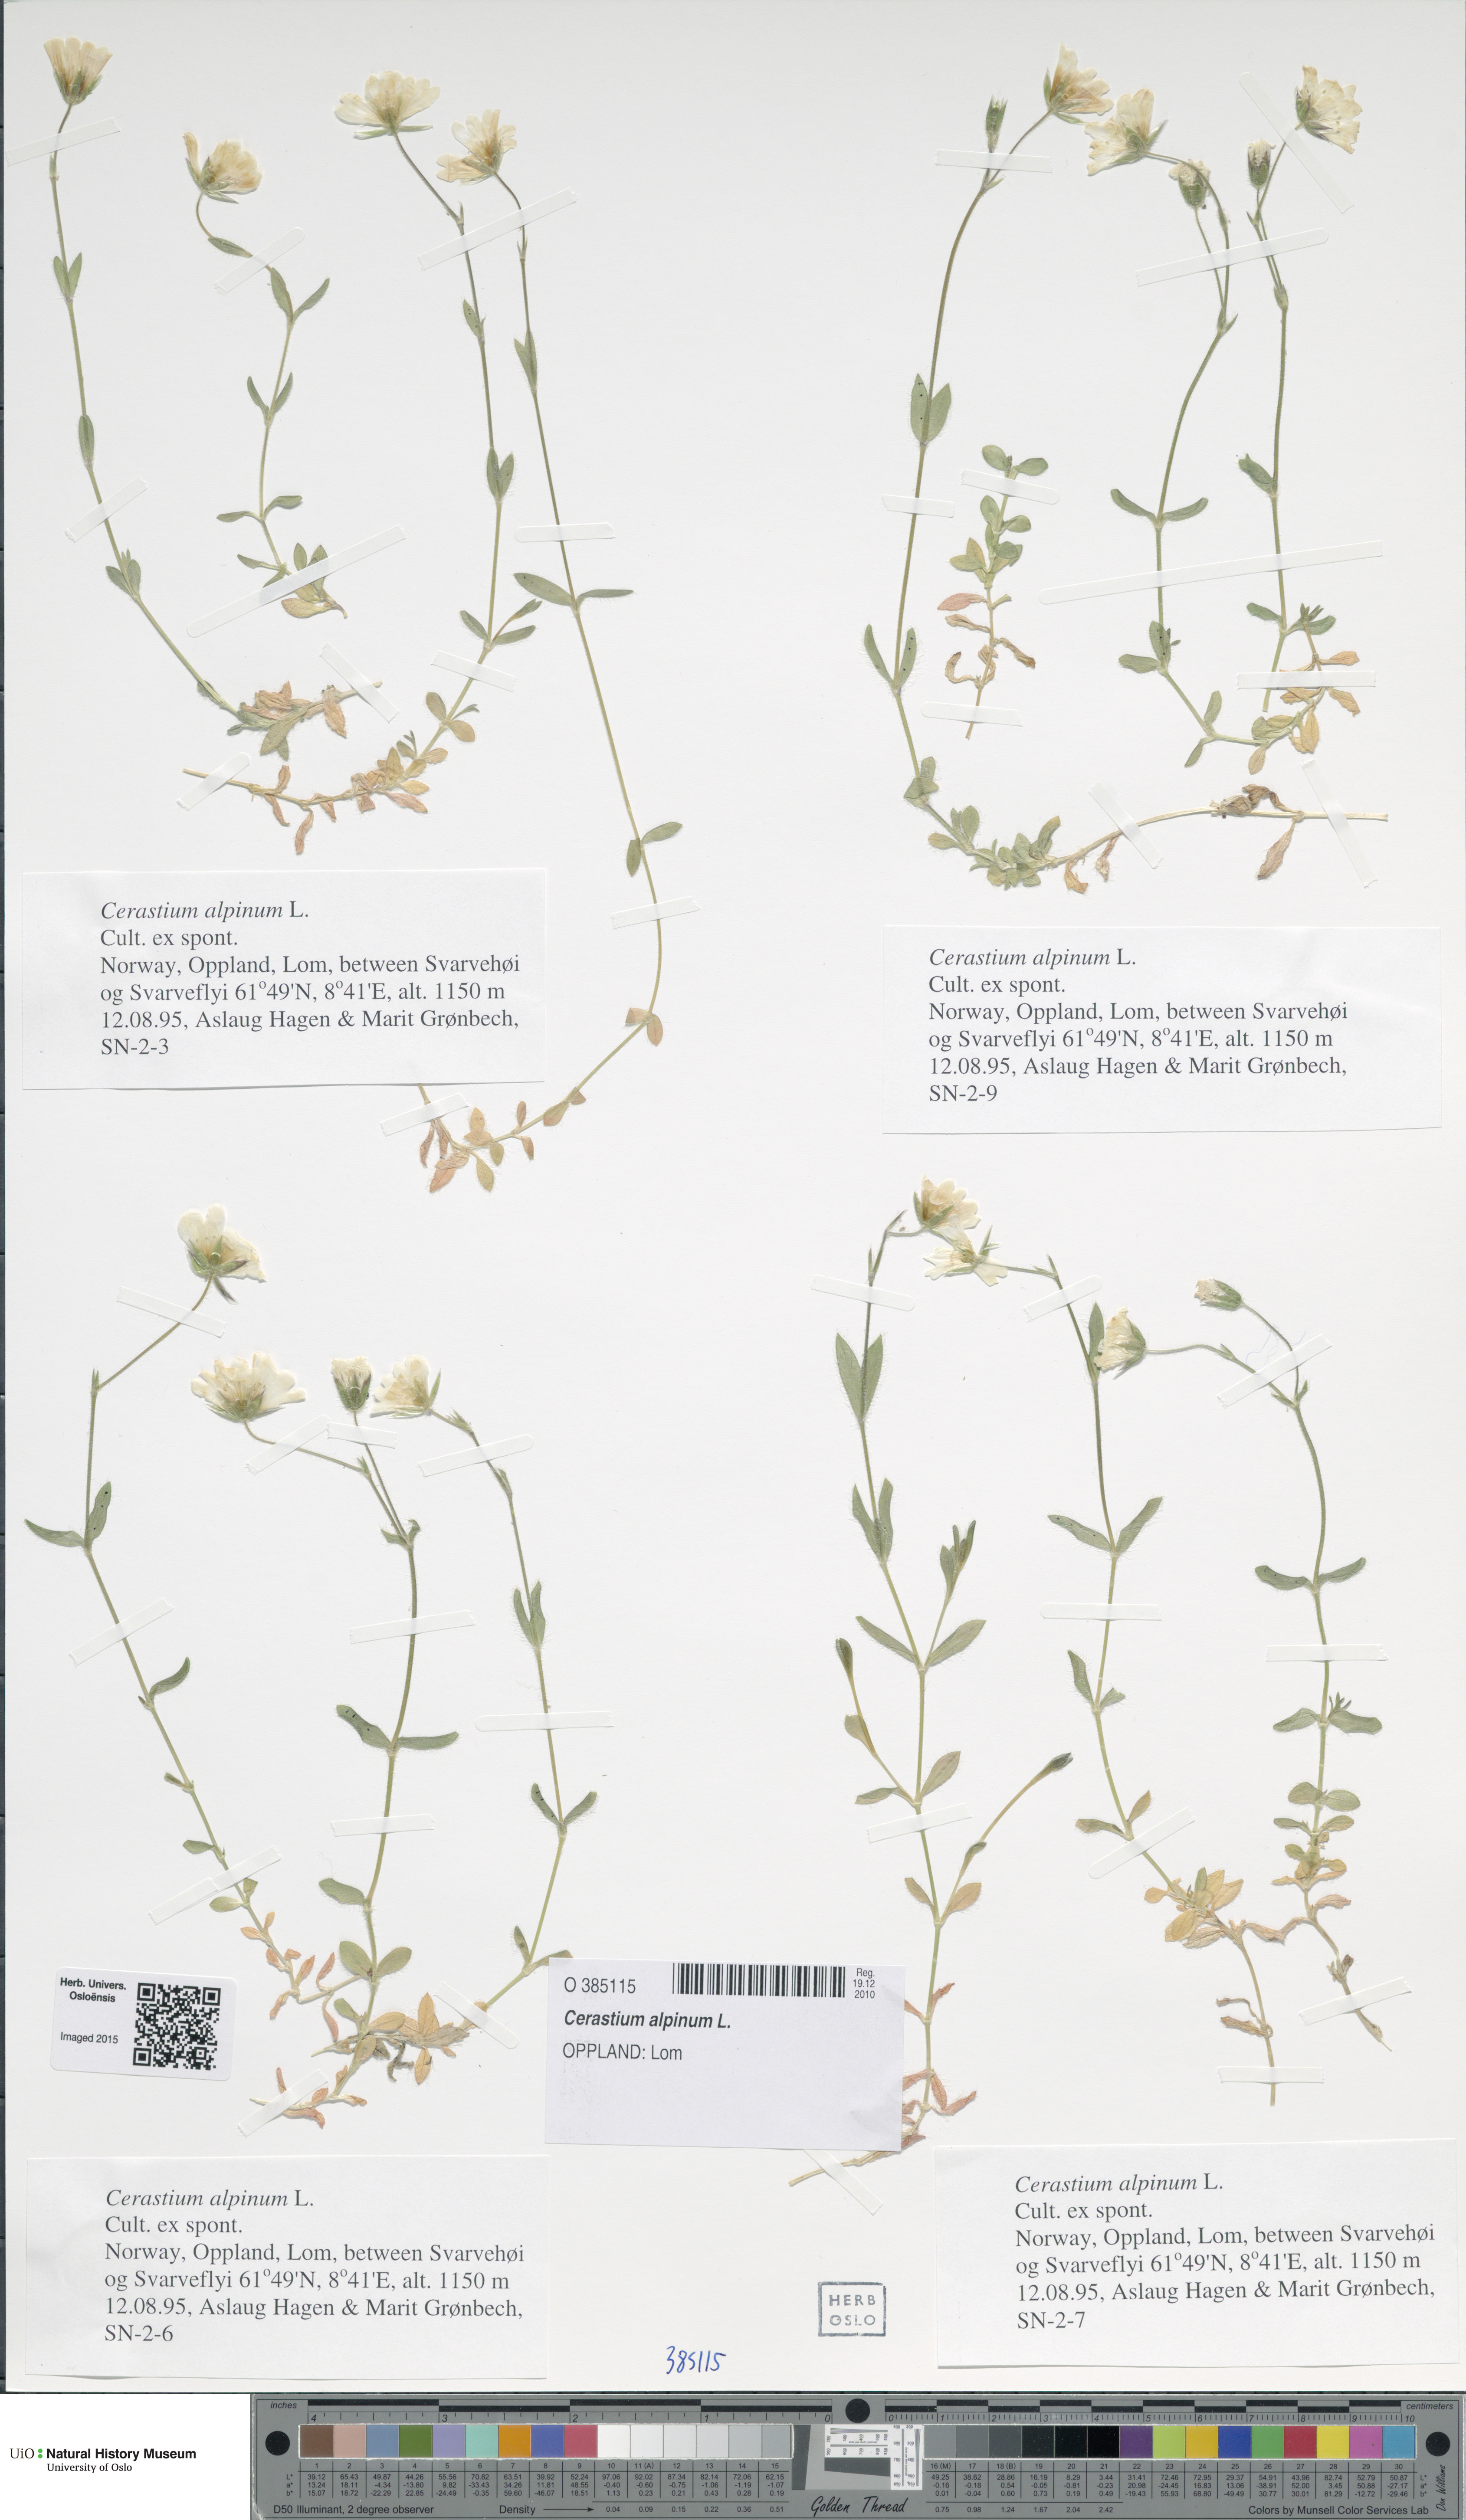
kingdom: Plantae
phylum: Tracheophyta
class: Magnoliopsida
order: Caryophyllales
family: Caryophyllaceae
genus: Cerastium
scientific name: Cerastium alpinum
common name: Alpine mouse-ear
